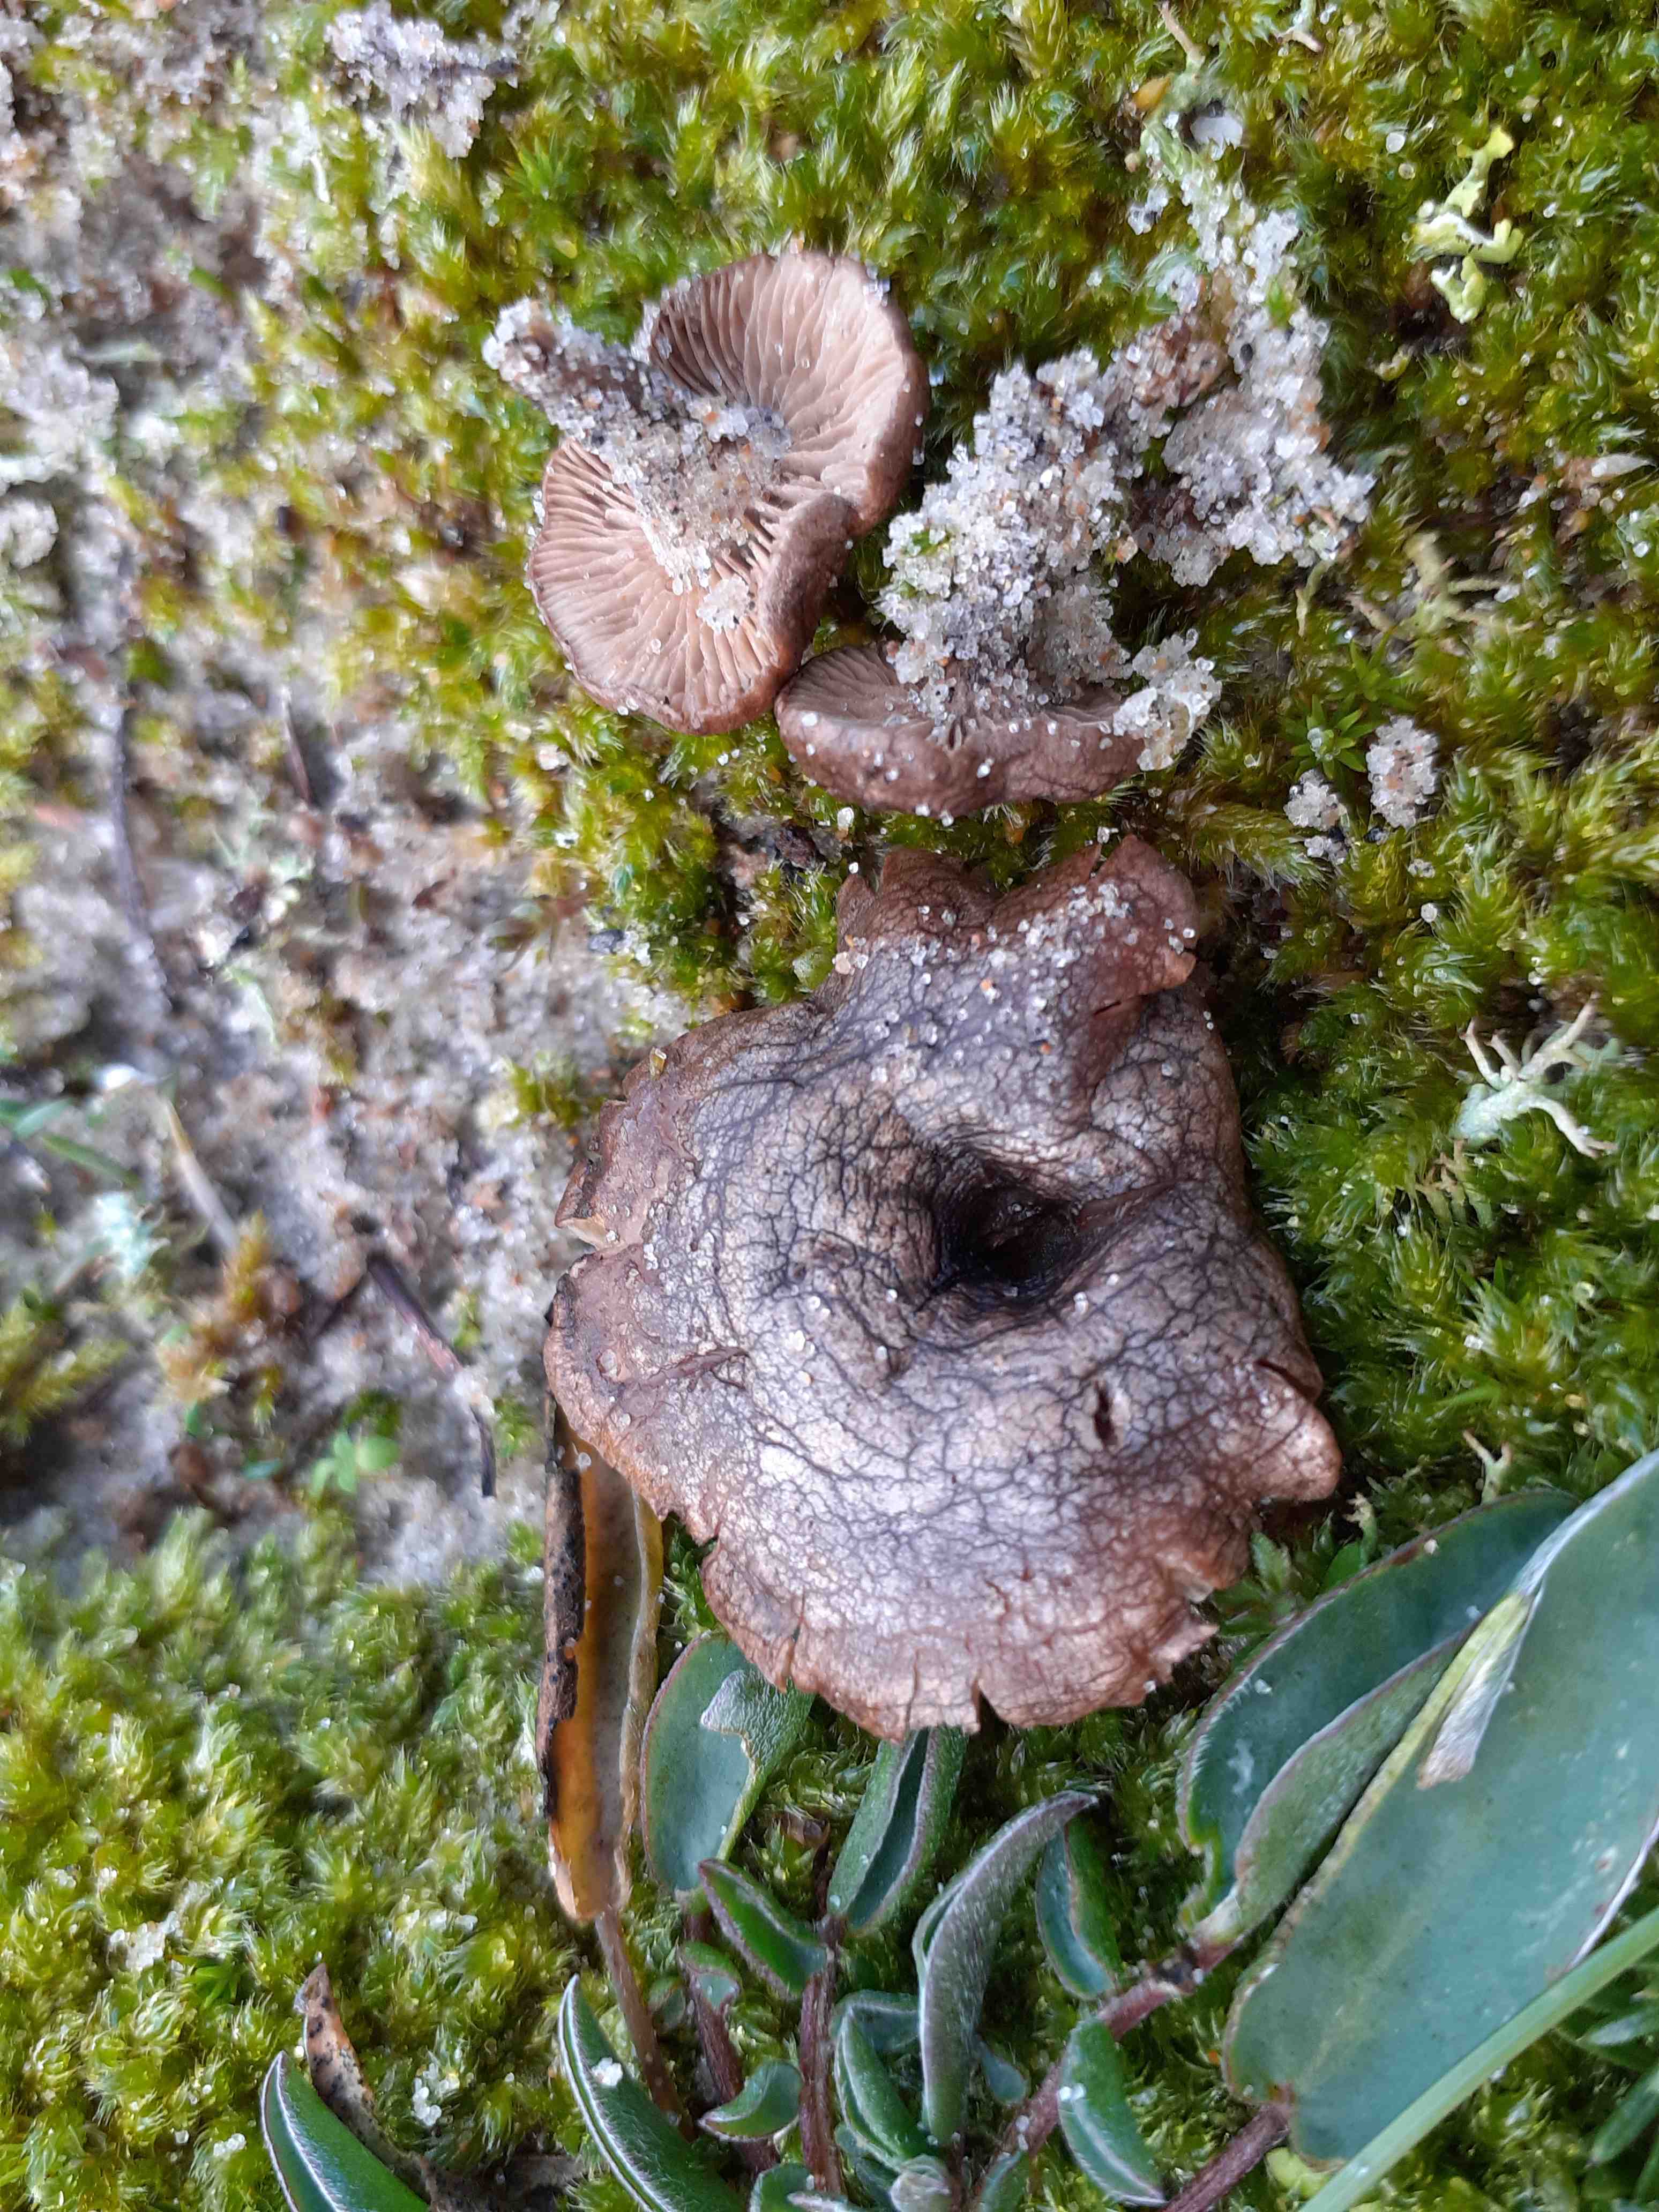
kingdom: Fungi
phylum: Basidiomycota
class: Agaricomycetes
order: Agaricales
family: Entolomataceae
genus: Clitopilus
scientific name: Clitopilus caelatus
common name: gråbrun troldhat
